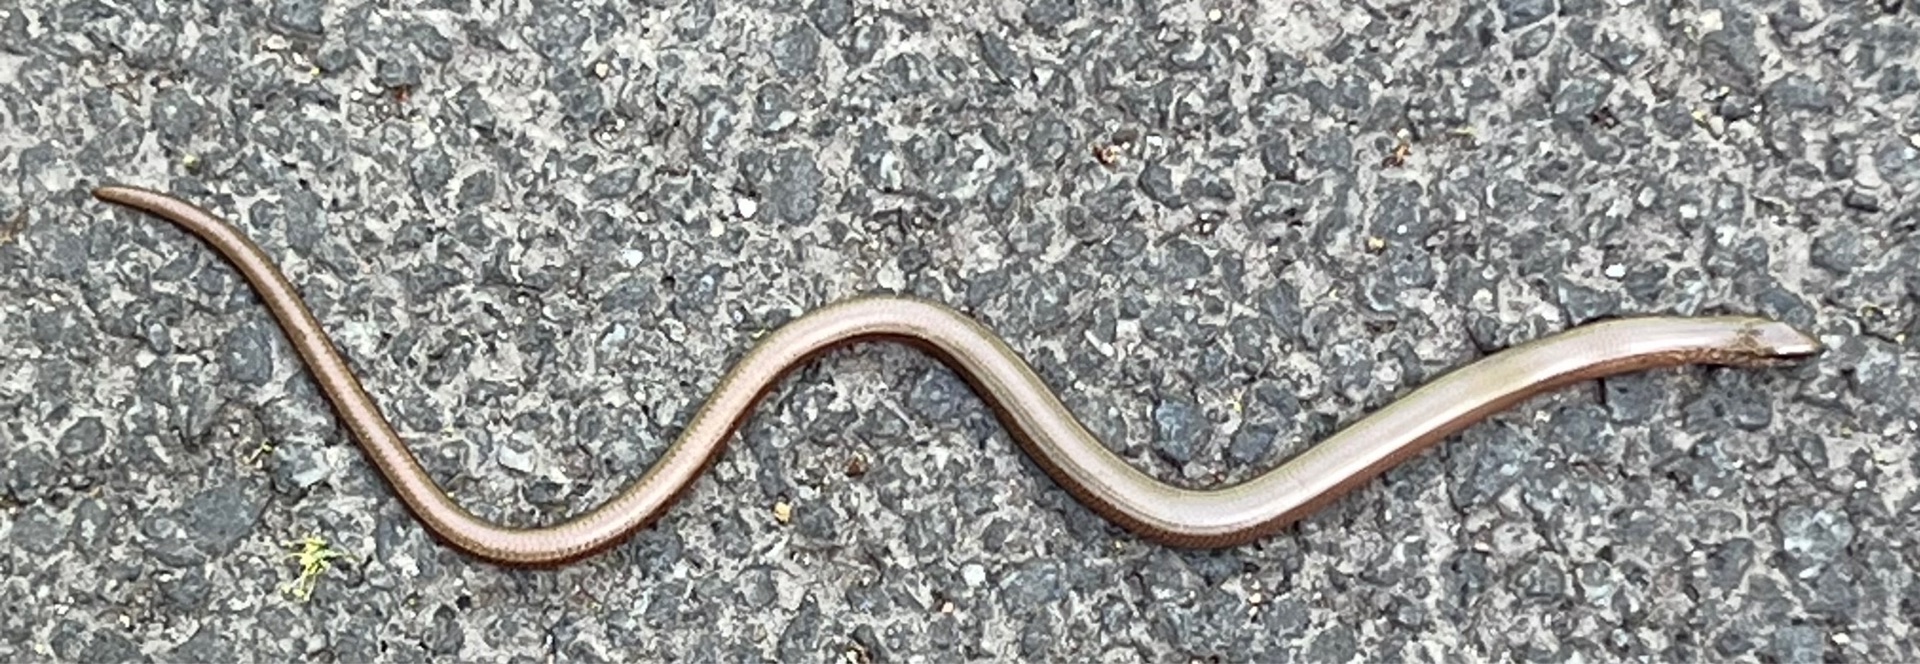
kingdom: Animalia
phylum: Chordata
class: Squamata
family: Anguidae
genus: Anguis
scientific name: Anguis fragilis
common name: Stålorm
